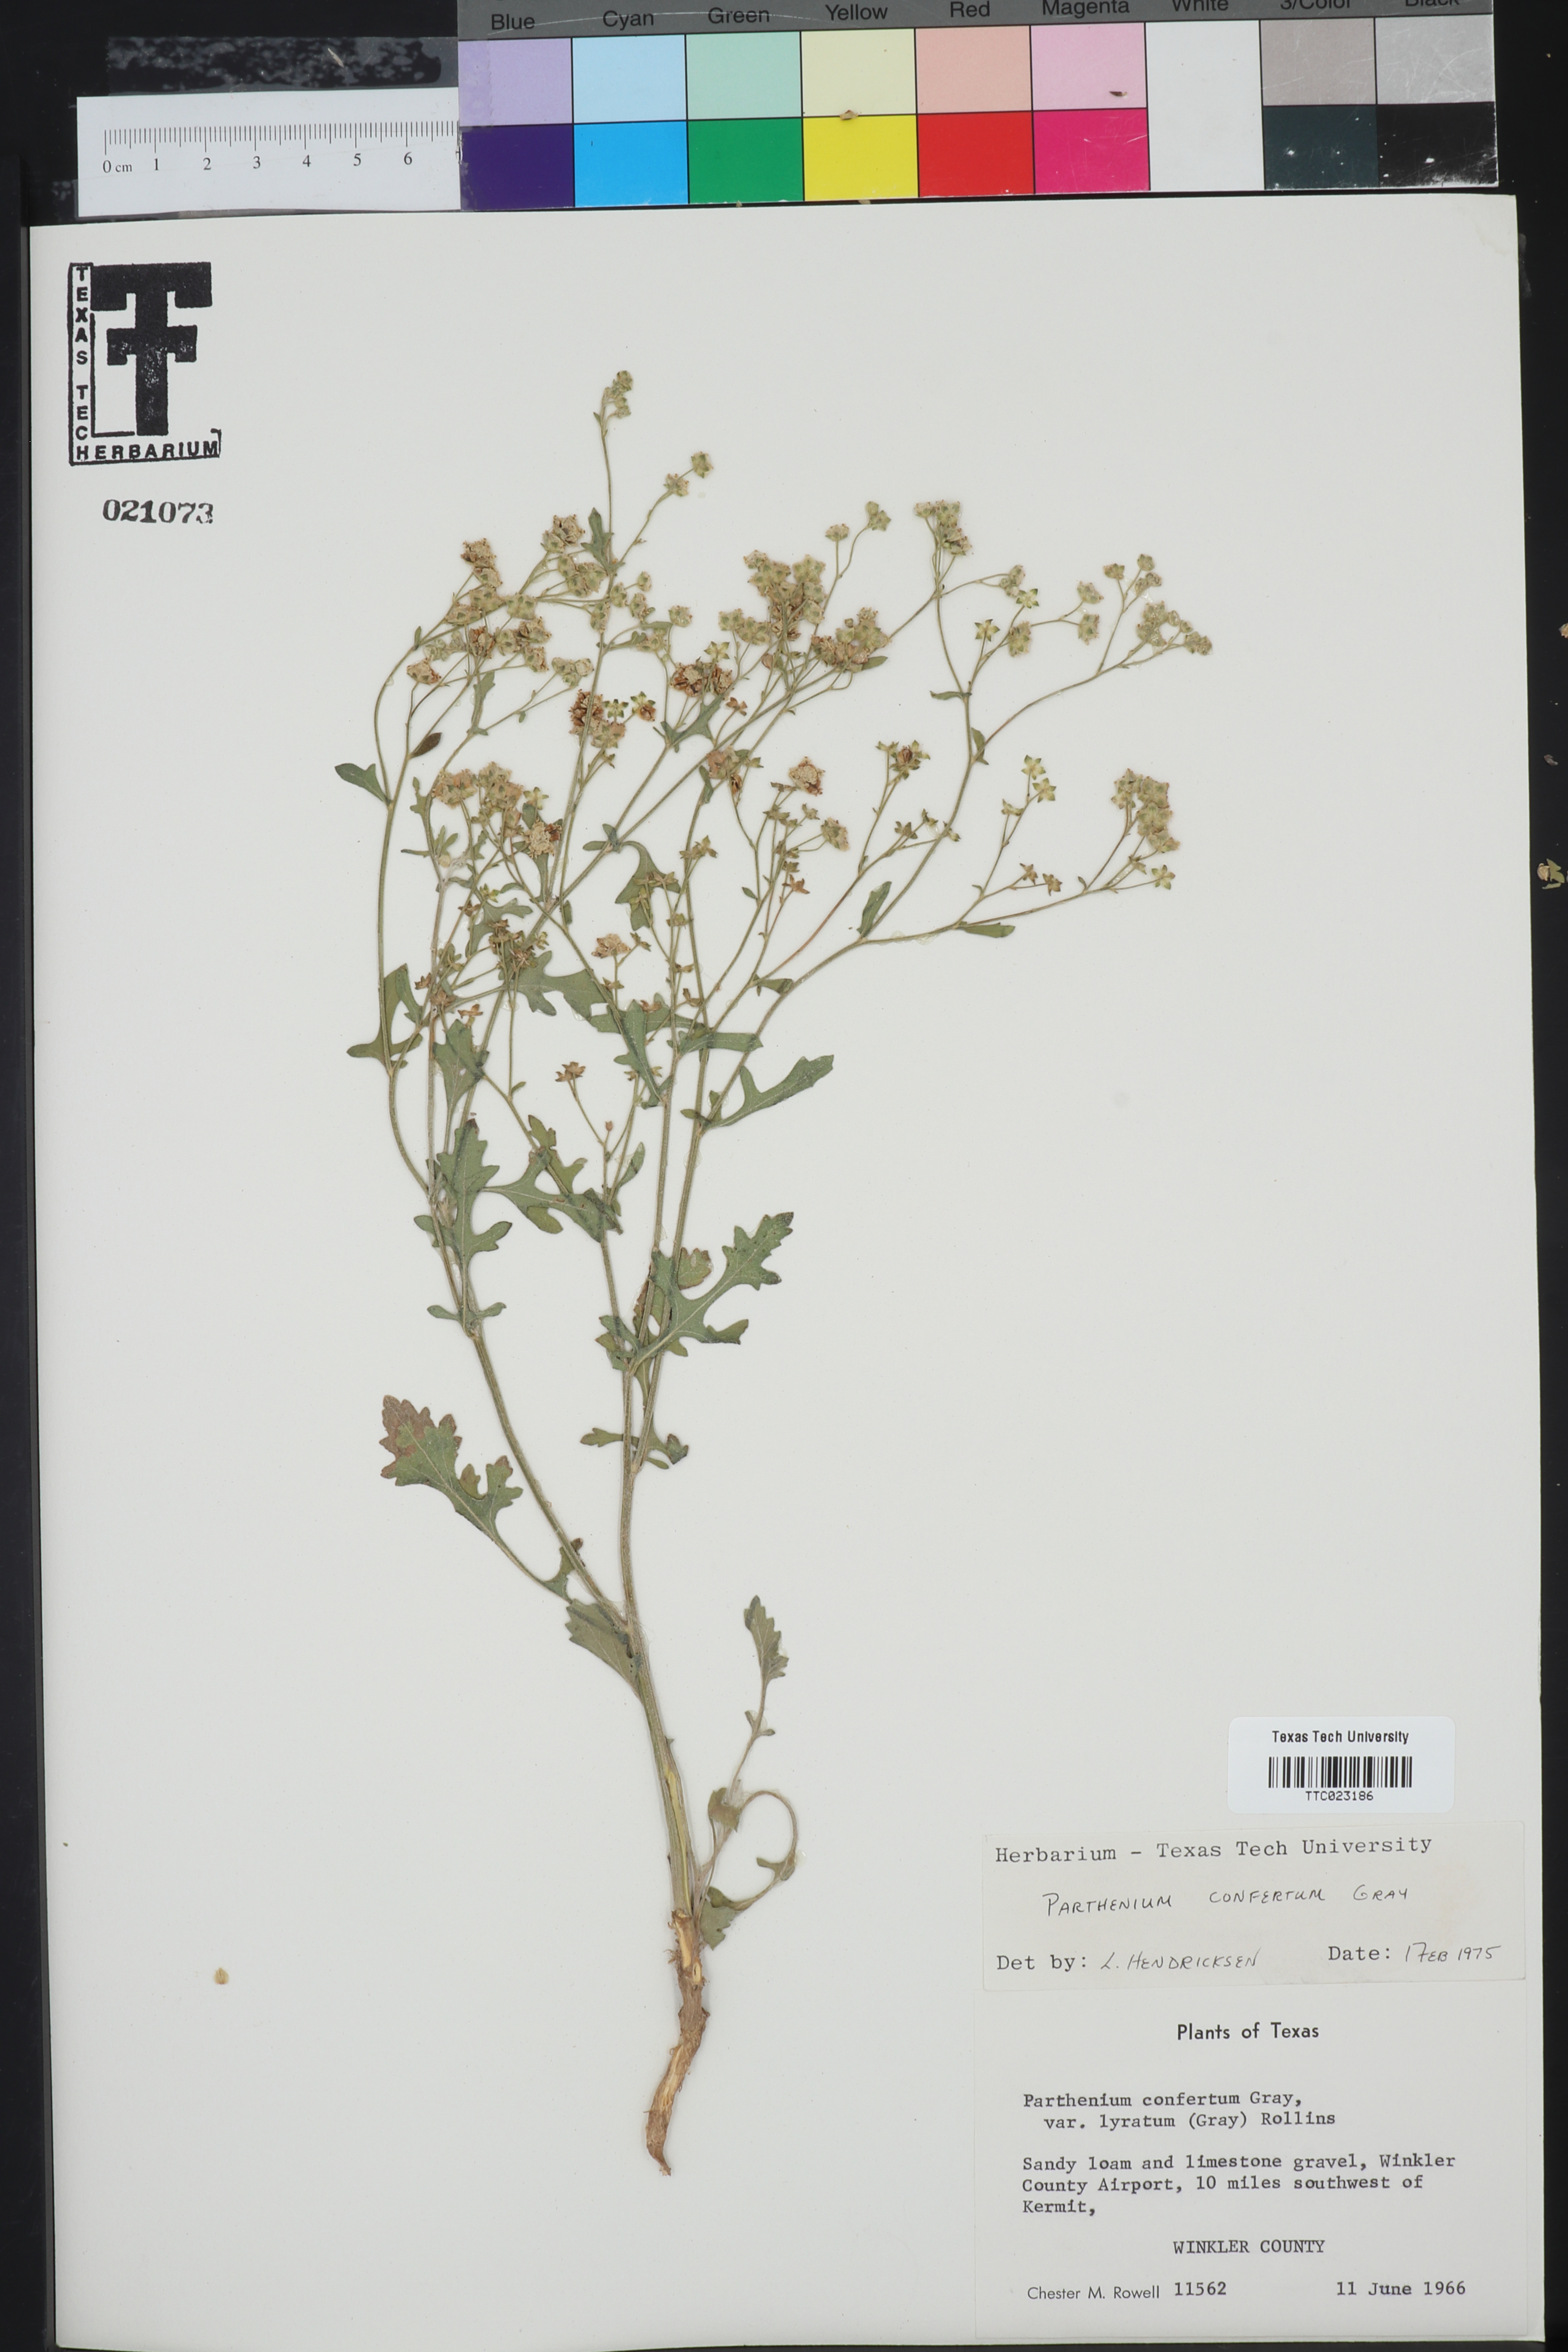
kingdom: Plantae
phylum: Tracheophyta
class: Magnoliopsida
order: Asterales
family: Asteraceae
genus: Parthenium
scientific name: Parthenium confertum
